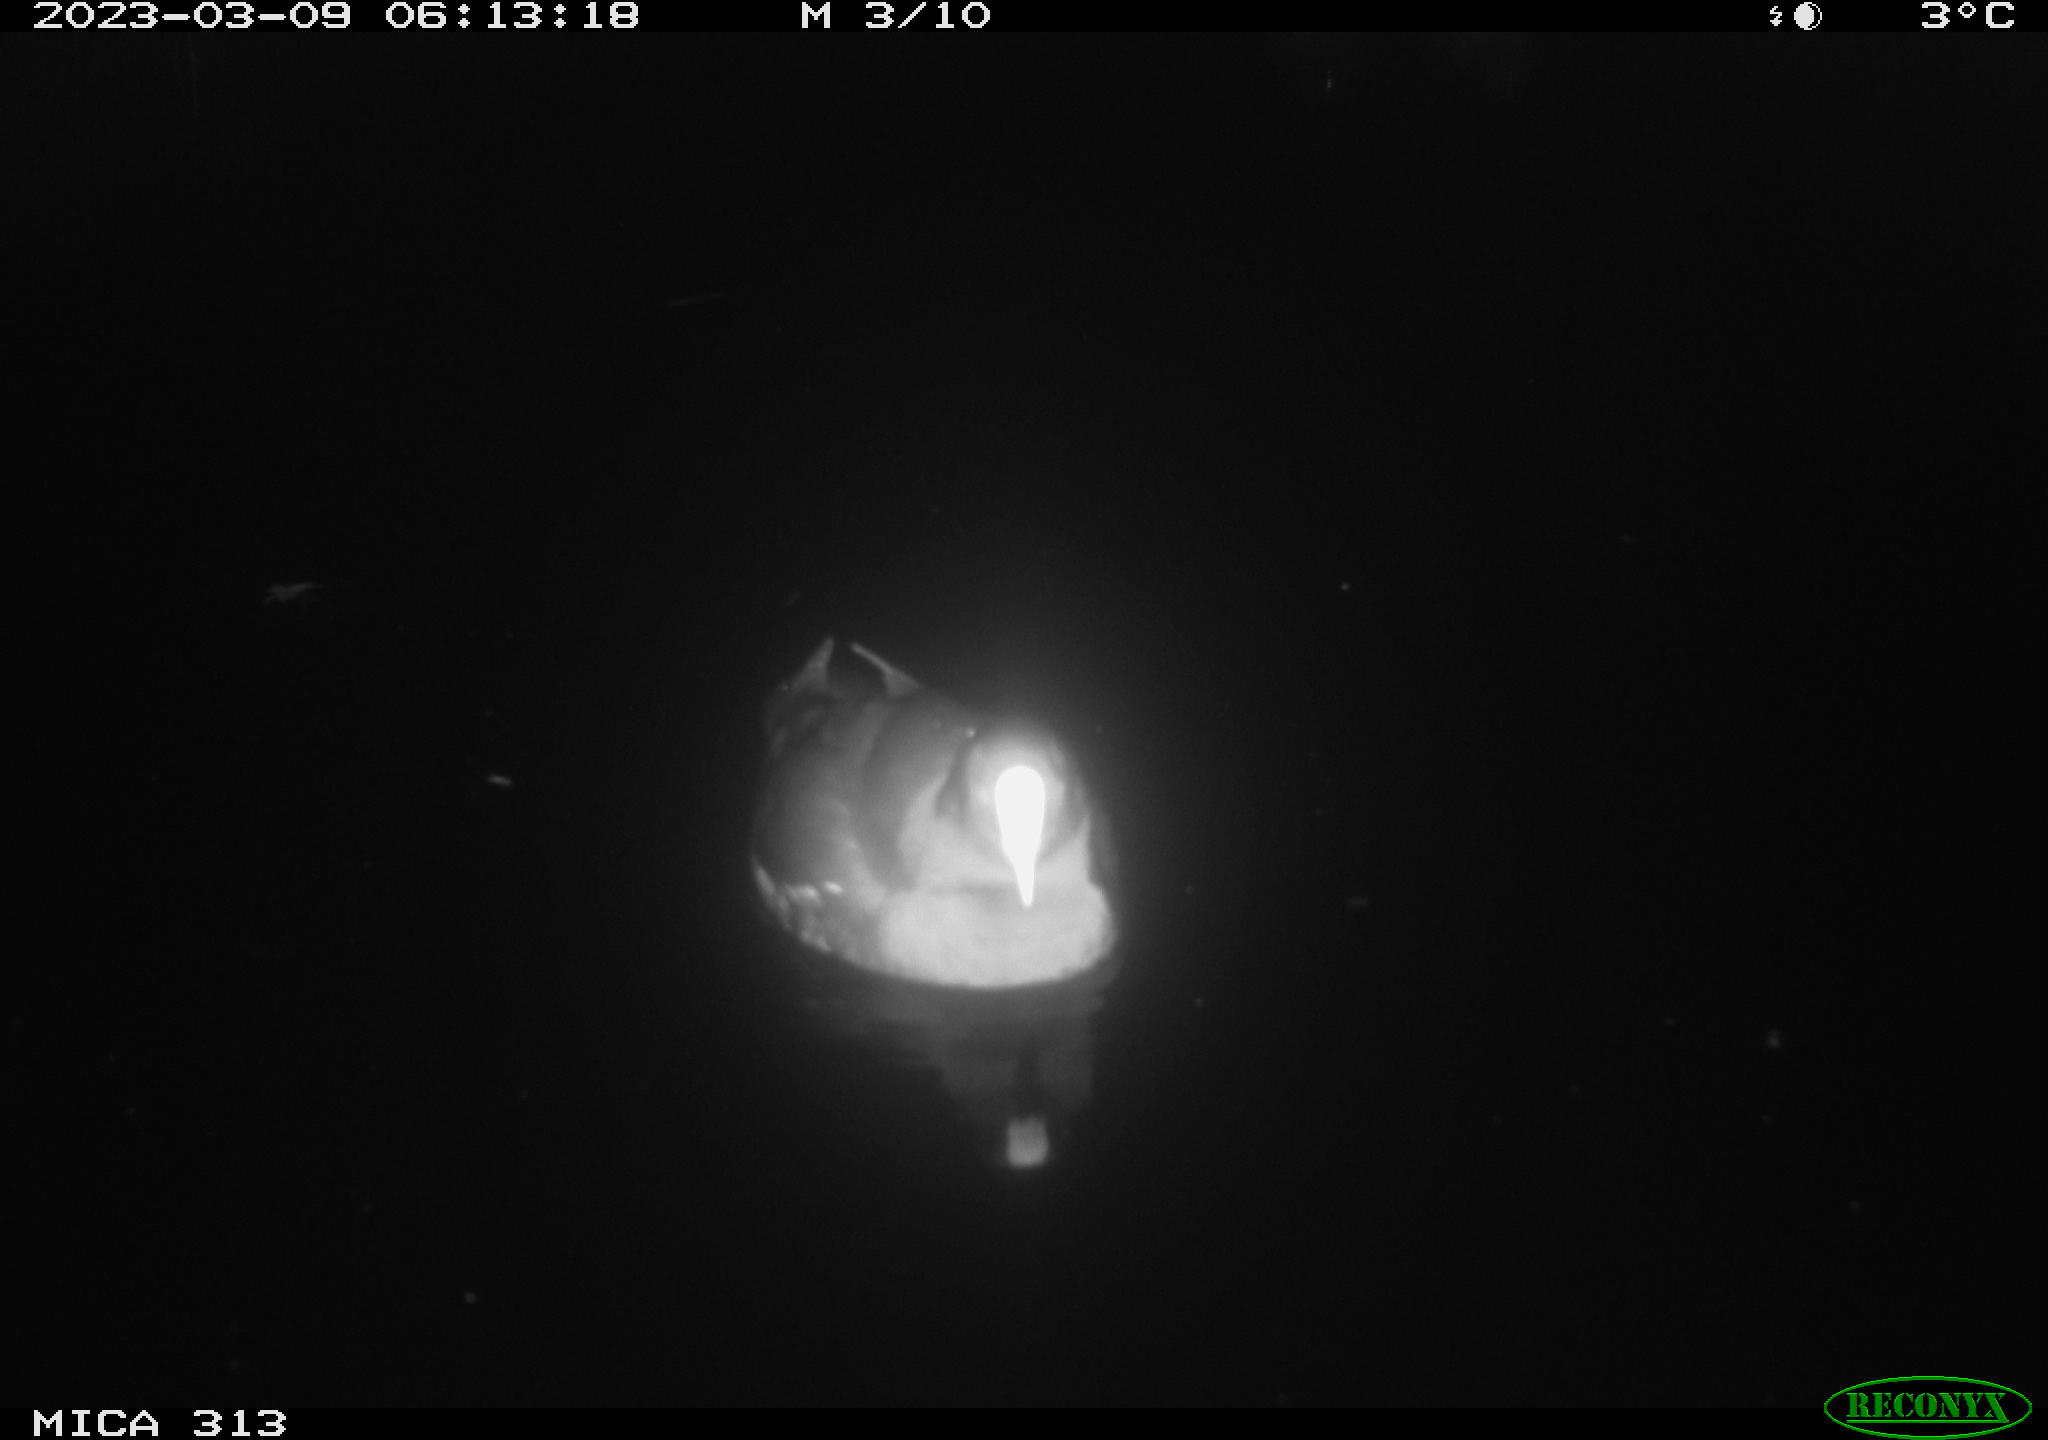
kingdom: Animalia
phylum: Chordata
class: Aves
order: Anseriformes
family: Anatidae
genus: Anas
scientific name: Anas
